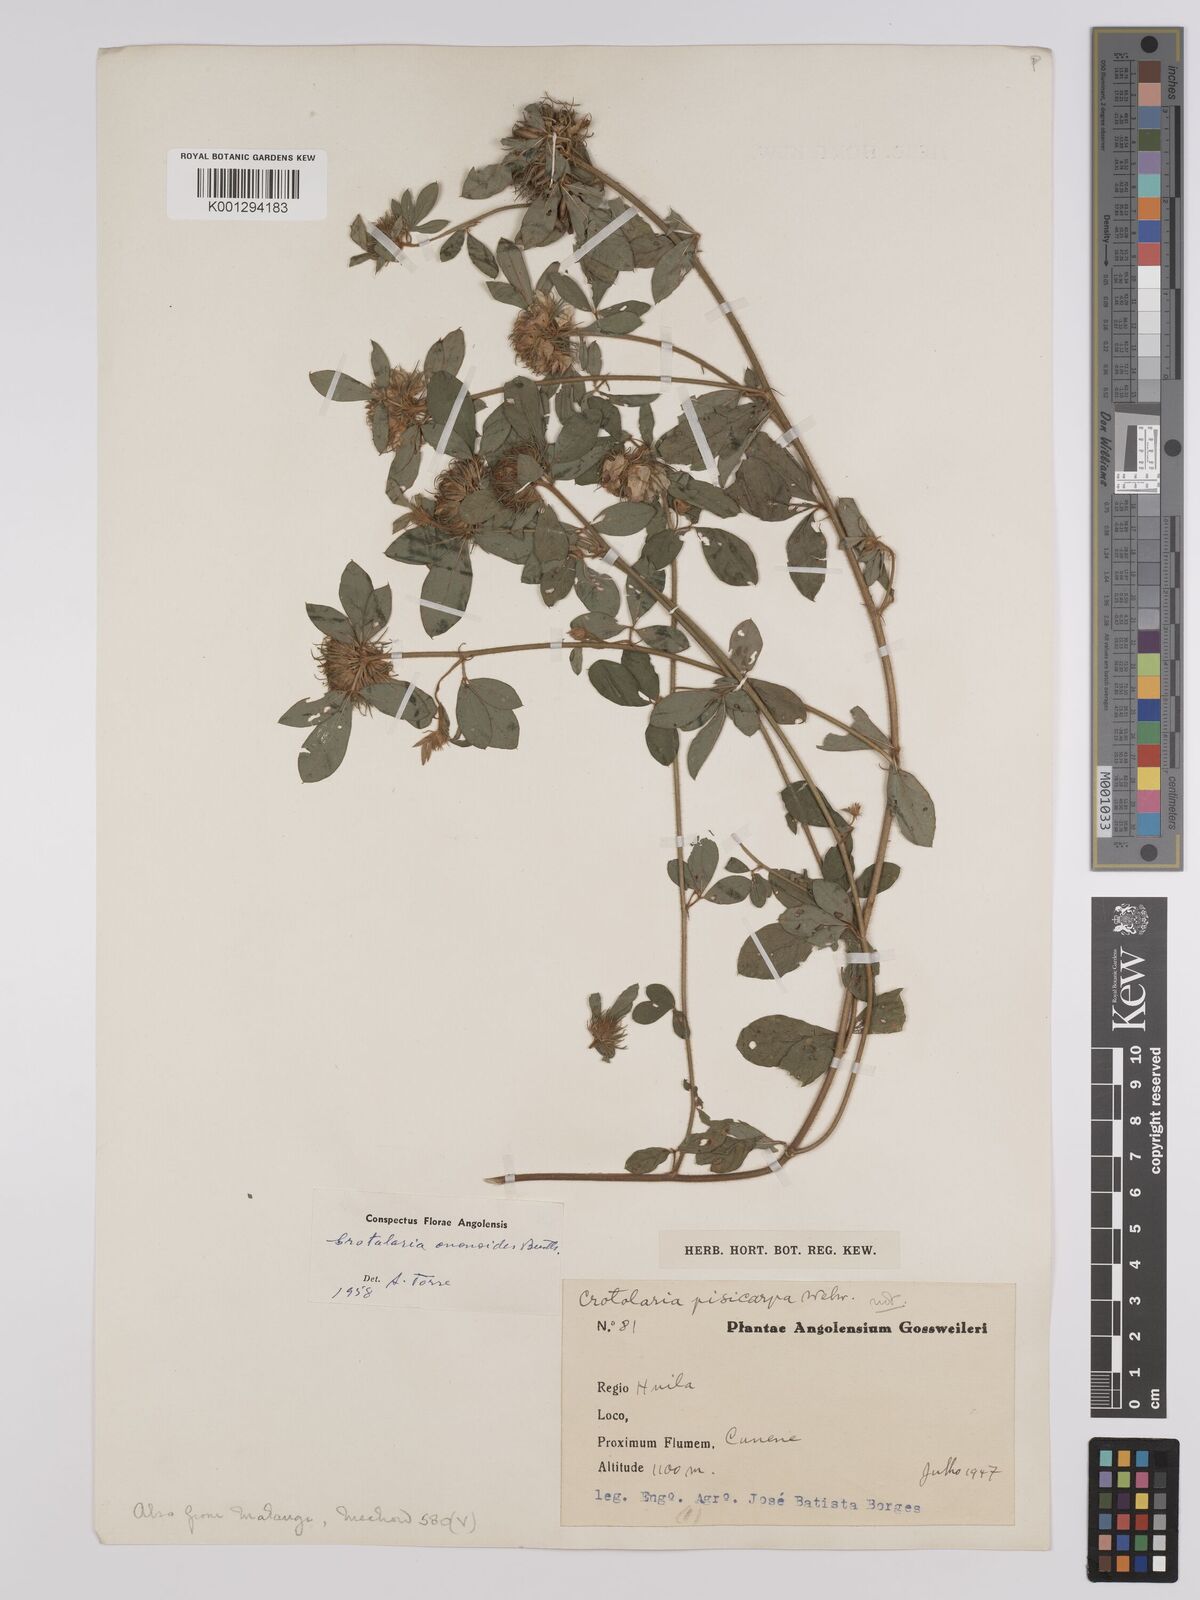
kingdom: Plantae
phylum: Tracheophyta
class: Magnoliopsida
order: Fabales
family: Fabaceae
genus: Crotalaria
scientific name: Crotalaria ononoides
